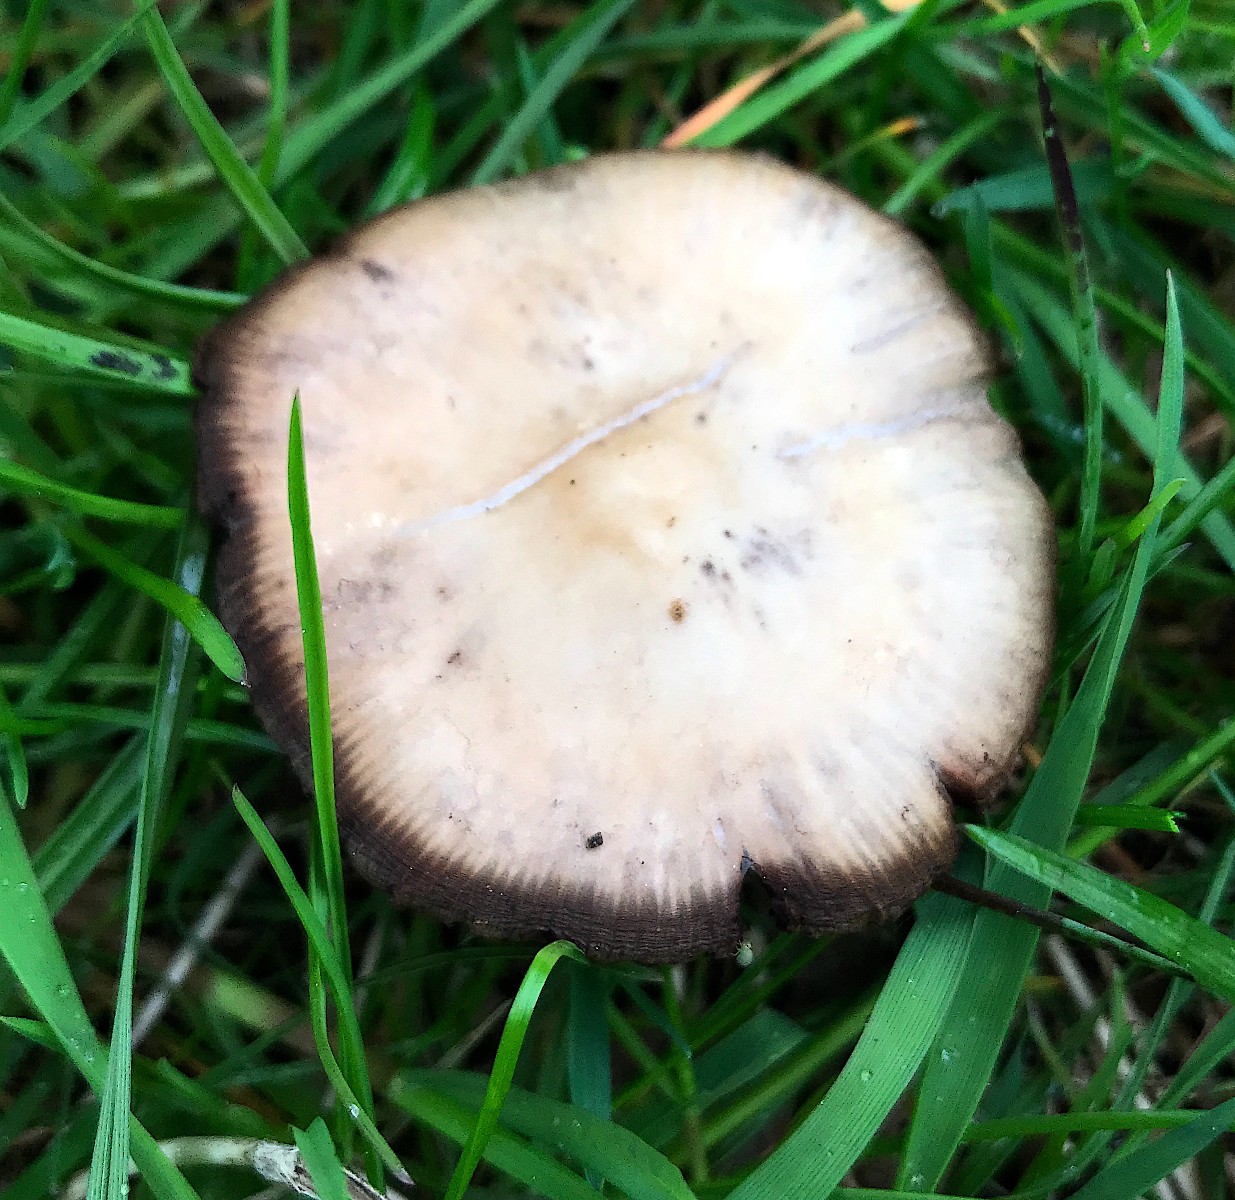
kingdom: Fungi
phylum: Basidiomycota
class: Agaricomycetes
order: Agaricales
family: Psathyrellaceae
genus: Psathyrella
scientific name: Psathyrella
